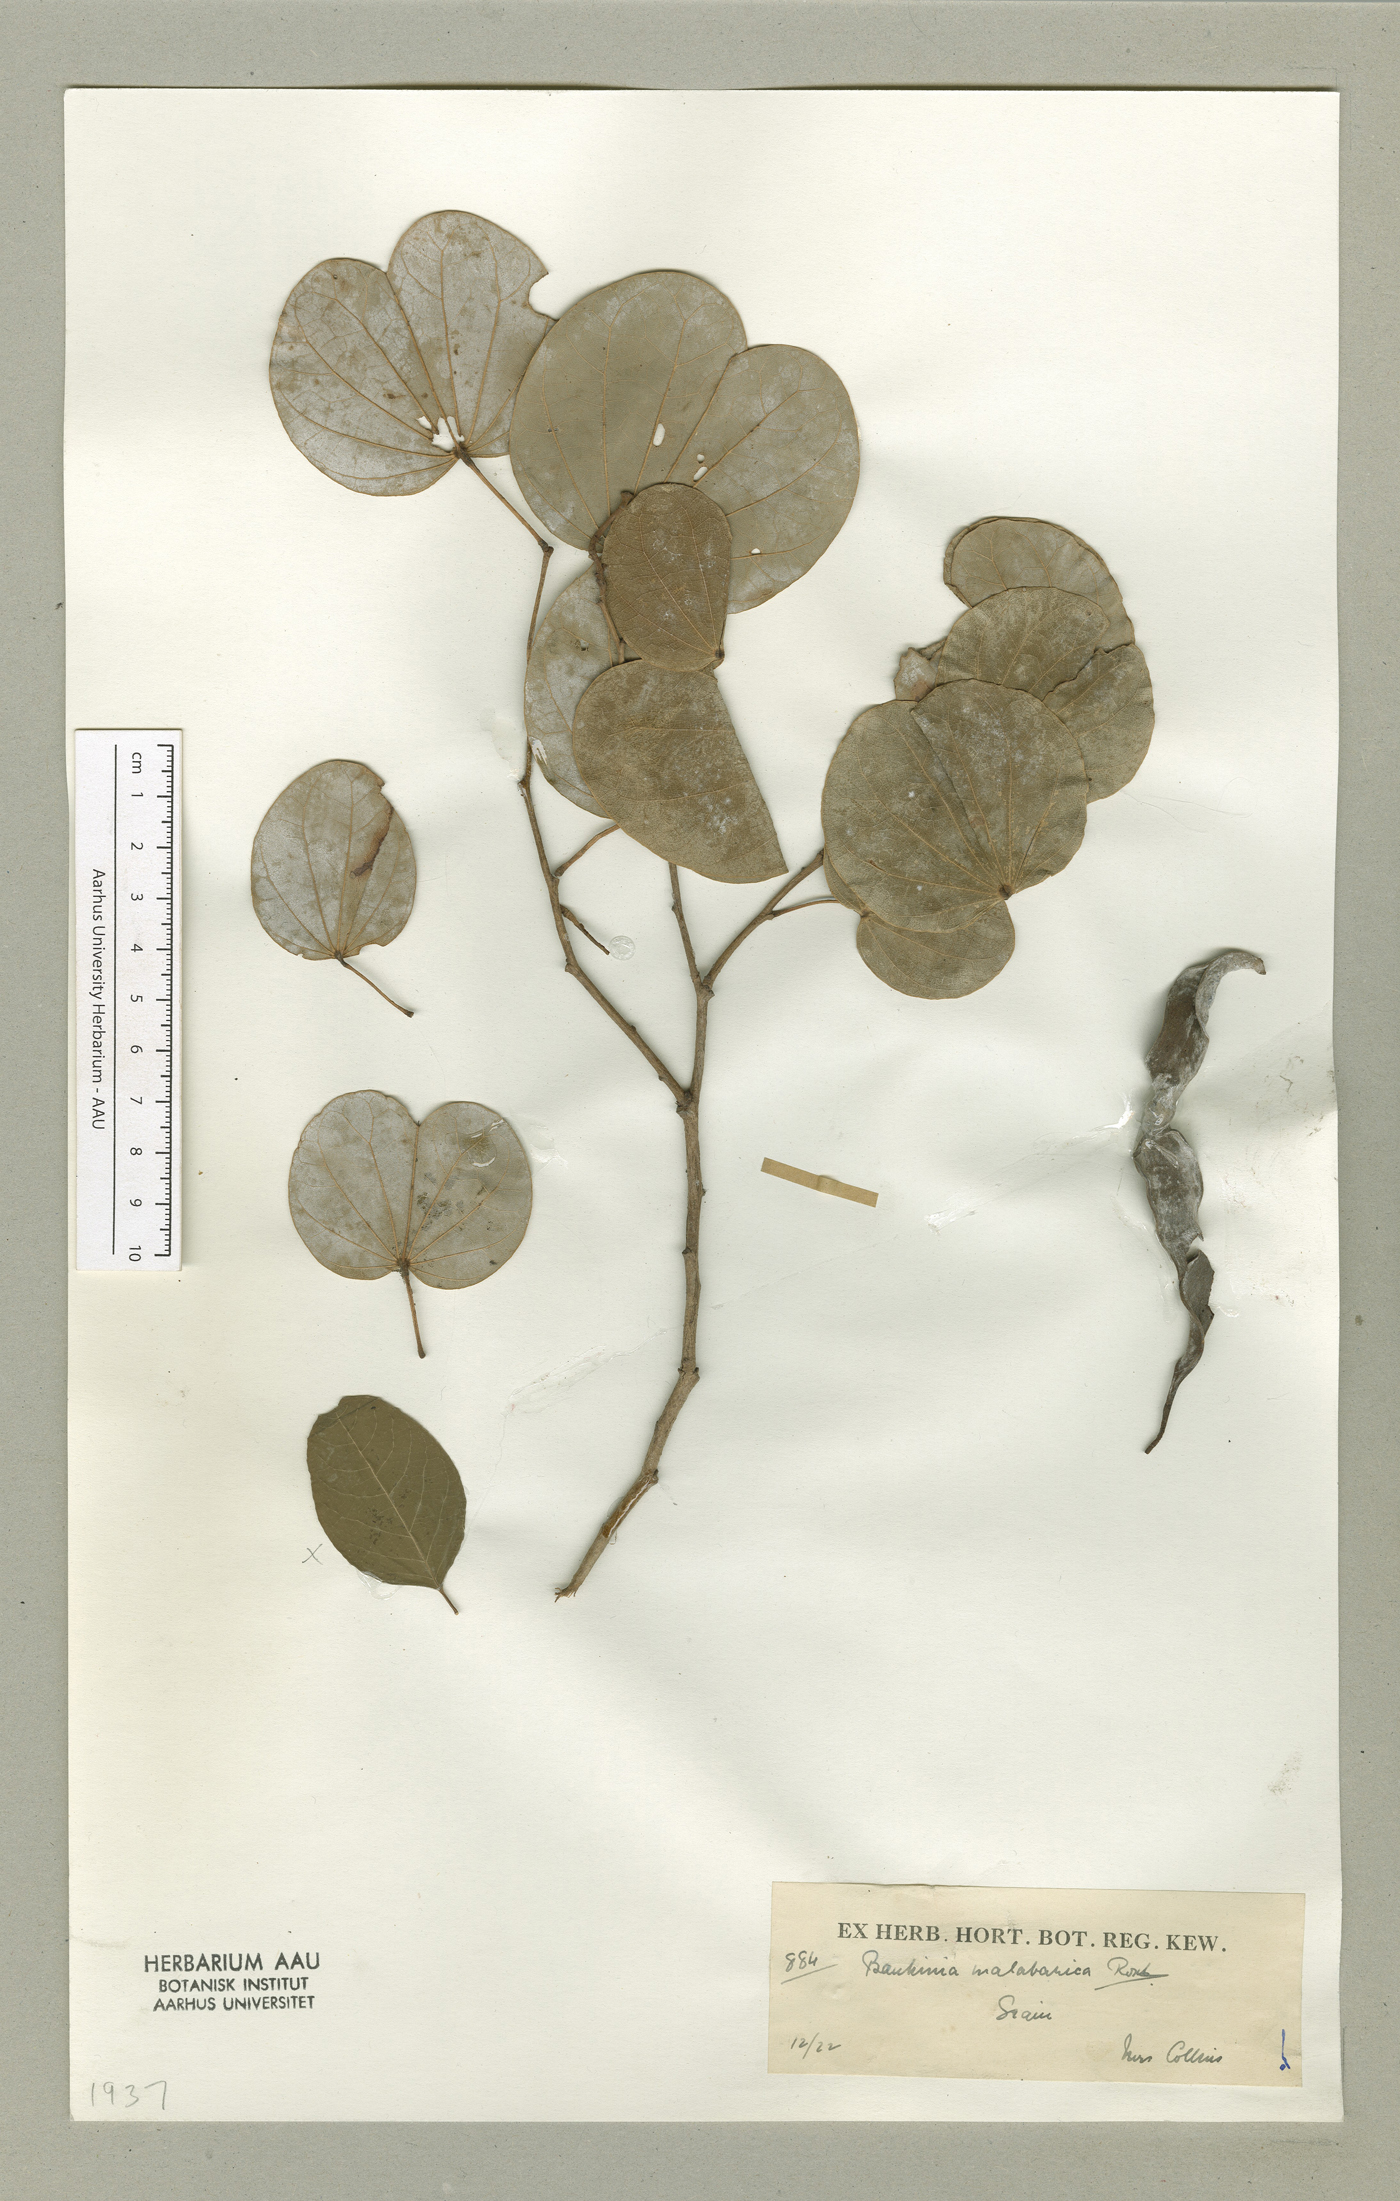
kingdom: Plantae
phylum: Tracheophyta
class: Magnoliopsida
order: Fabales
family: Fabaceae
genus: Piliostigma
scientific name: Piliostigma malabaricum
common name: Malabar bauhinia
